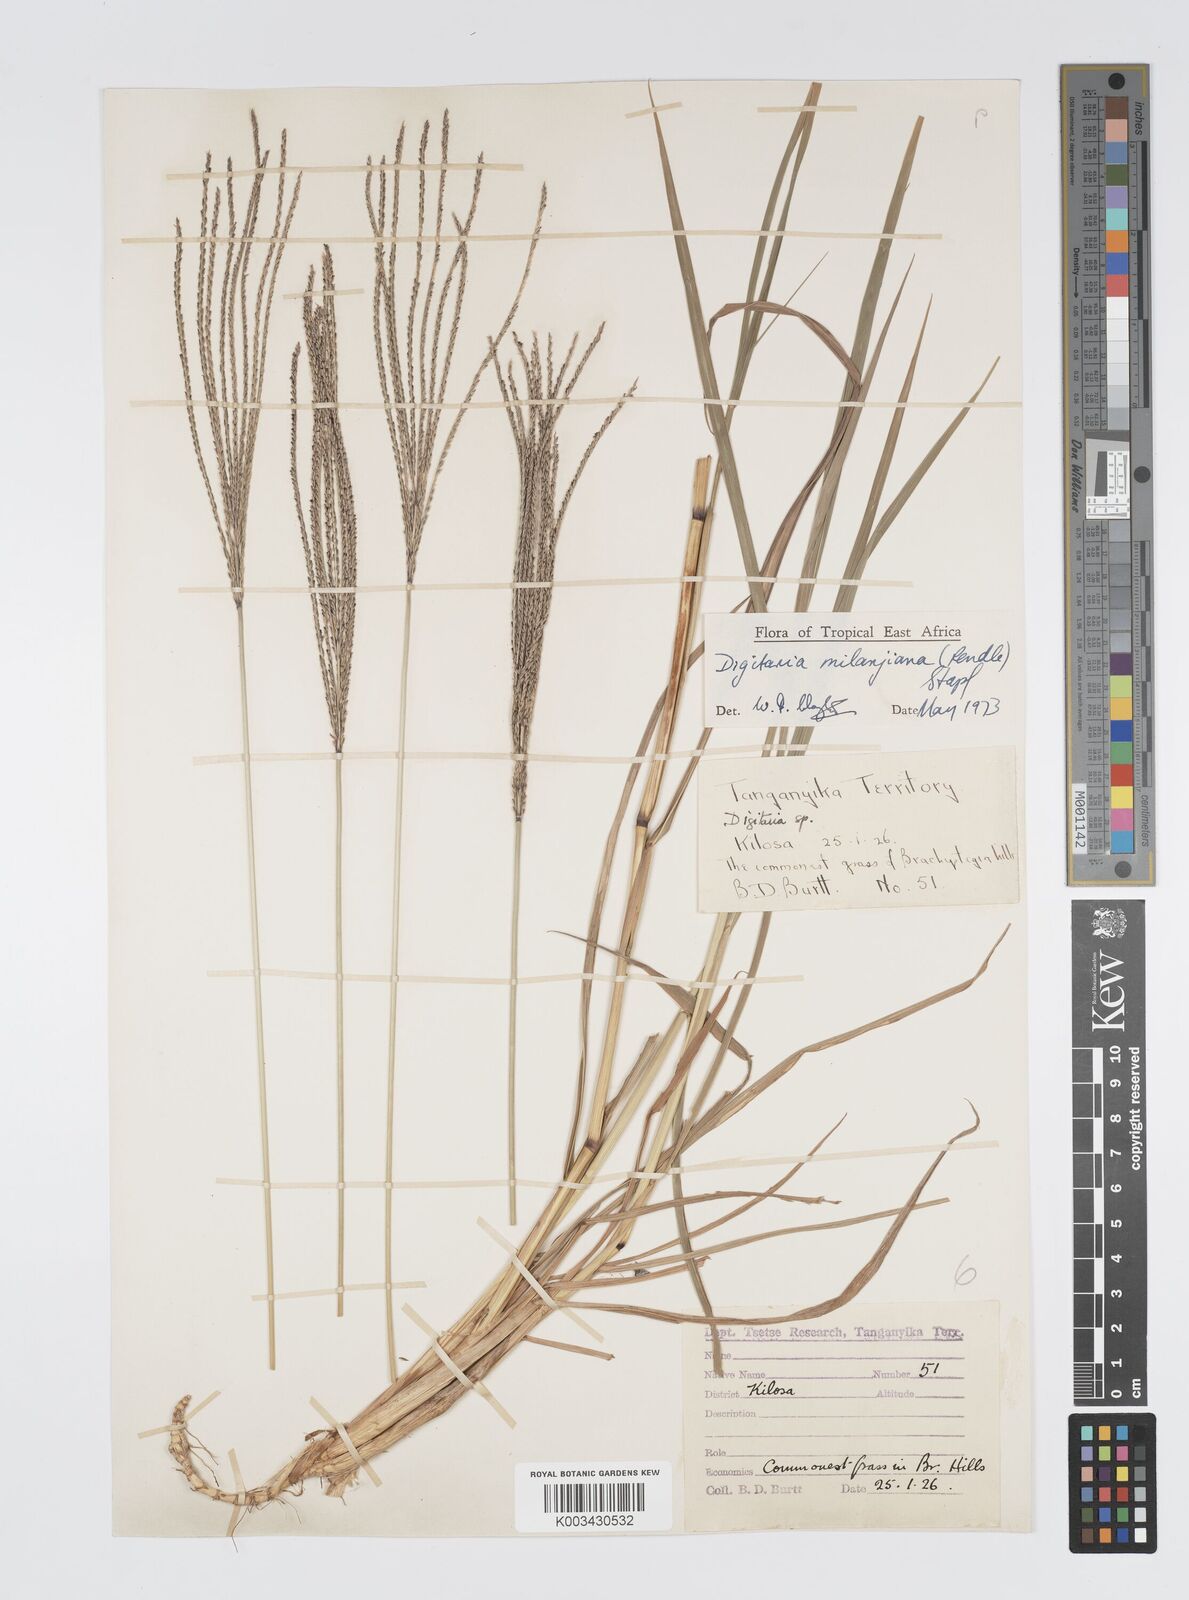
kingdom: Plantae
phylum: Tracheophyta
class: Liliopsida
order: Poales
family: Poaceae
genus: Digitaria
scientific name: Digitaria milanjiana
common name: Madagascar crabgrass
